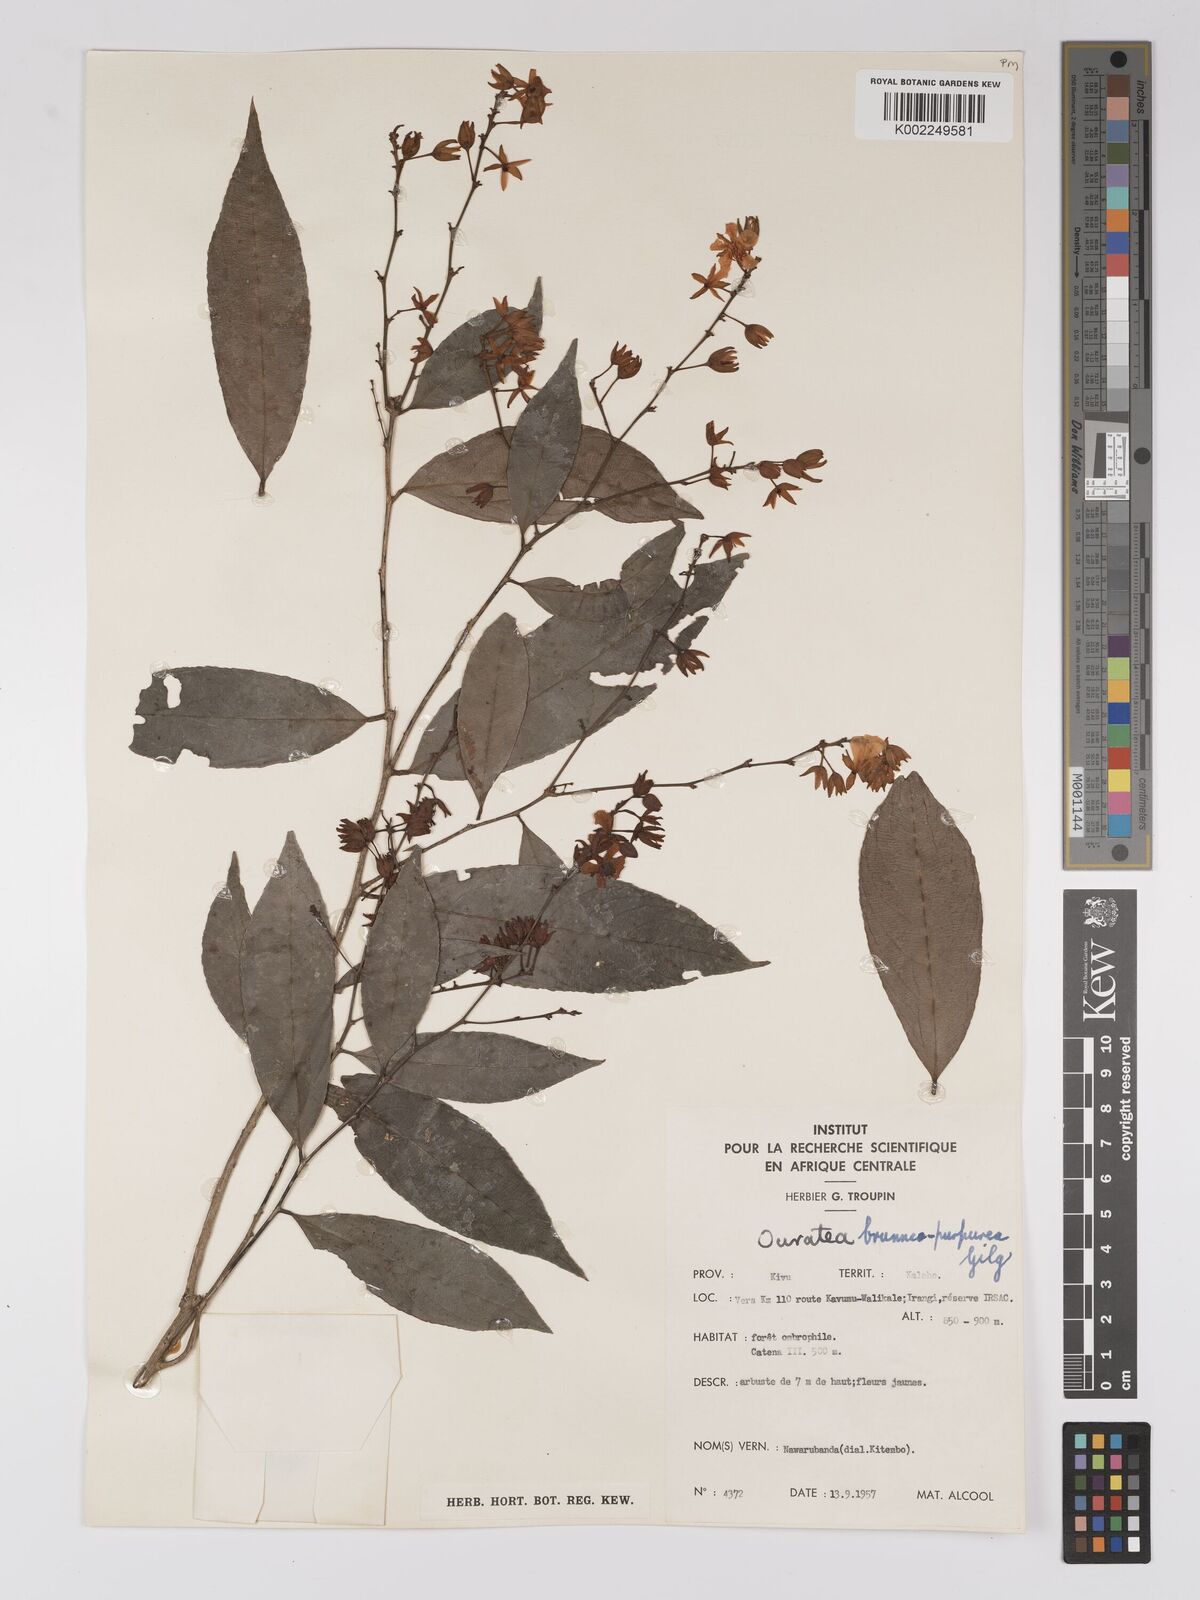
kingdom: Plantae
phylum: Tracheophyta
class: Magnoliopsida
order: Malpighiales
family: Ochnaceae
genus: Campylospermum
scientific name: Campylospermum reticulatum
